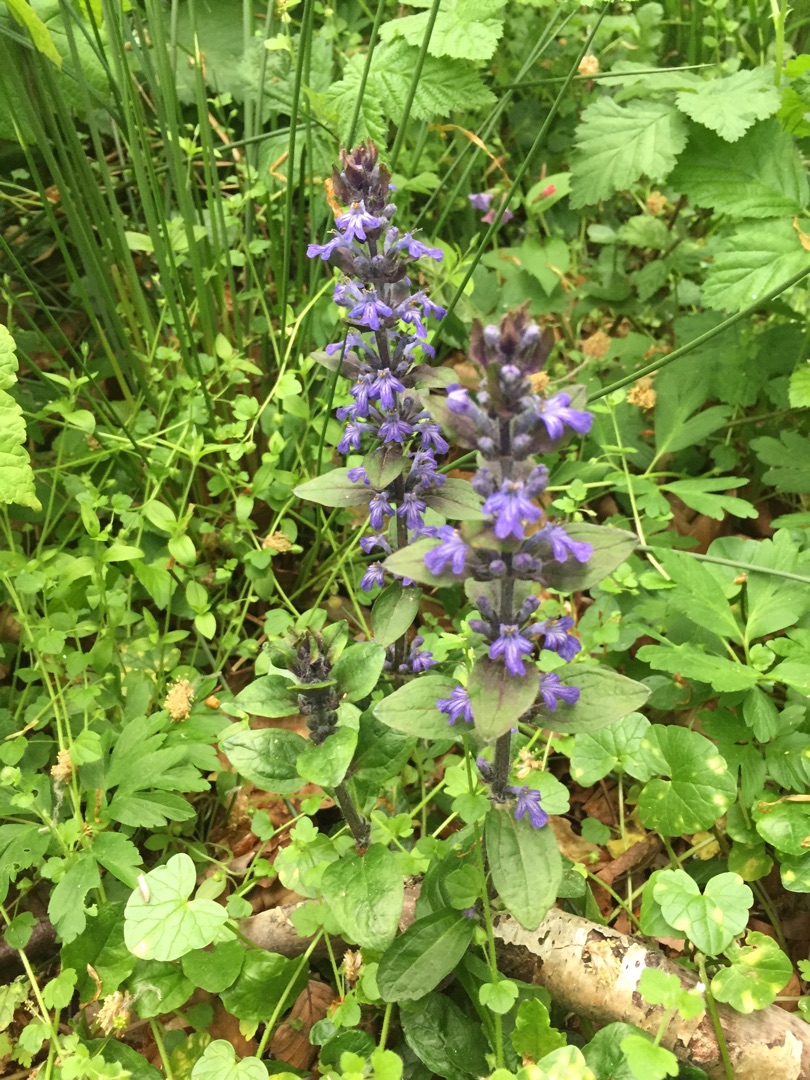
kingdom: Plantae
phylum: Tracheophyta
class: Magnoliopsida
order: Lamiales
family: Lamiaceae
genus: Ajuga
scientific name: Ajuga reptans
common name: Krybende læbeløs
